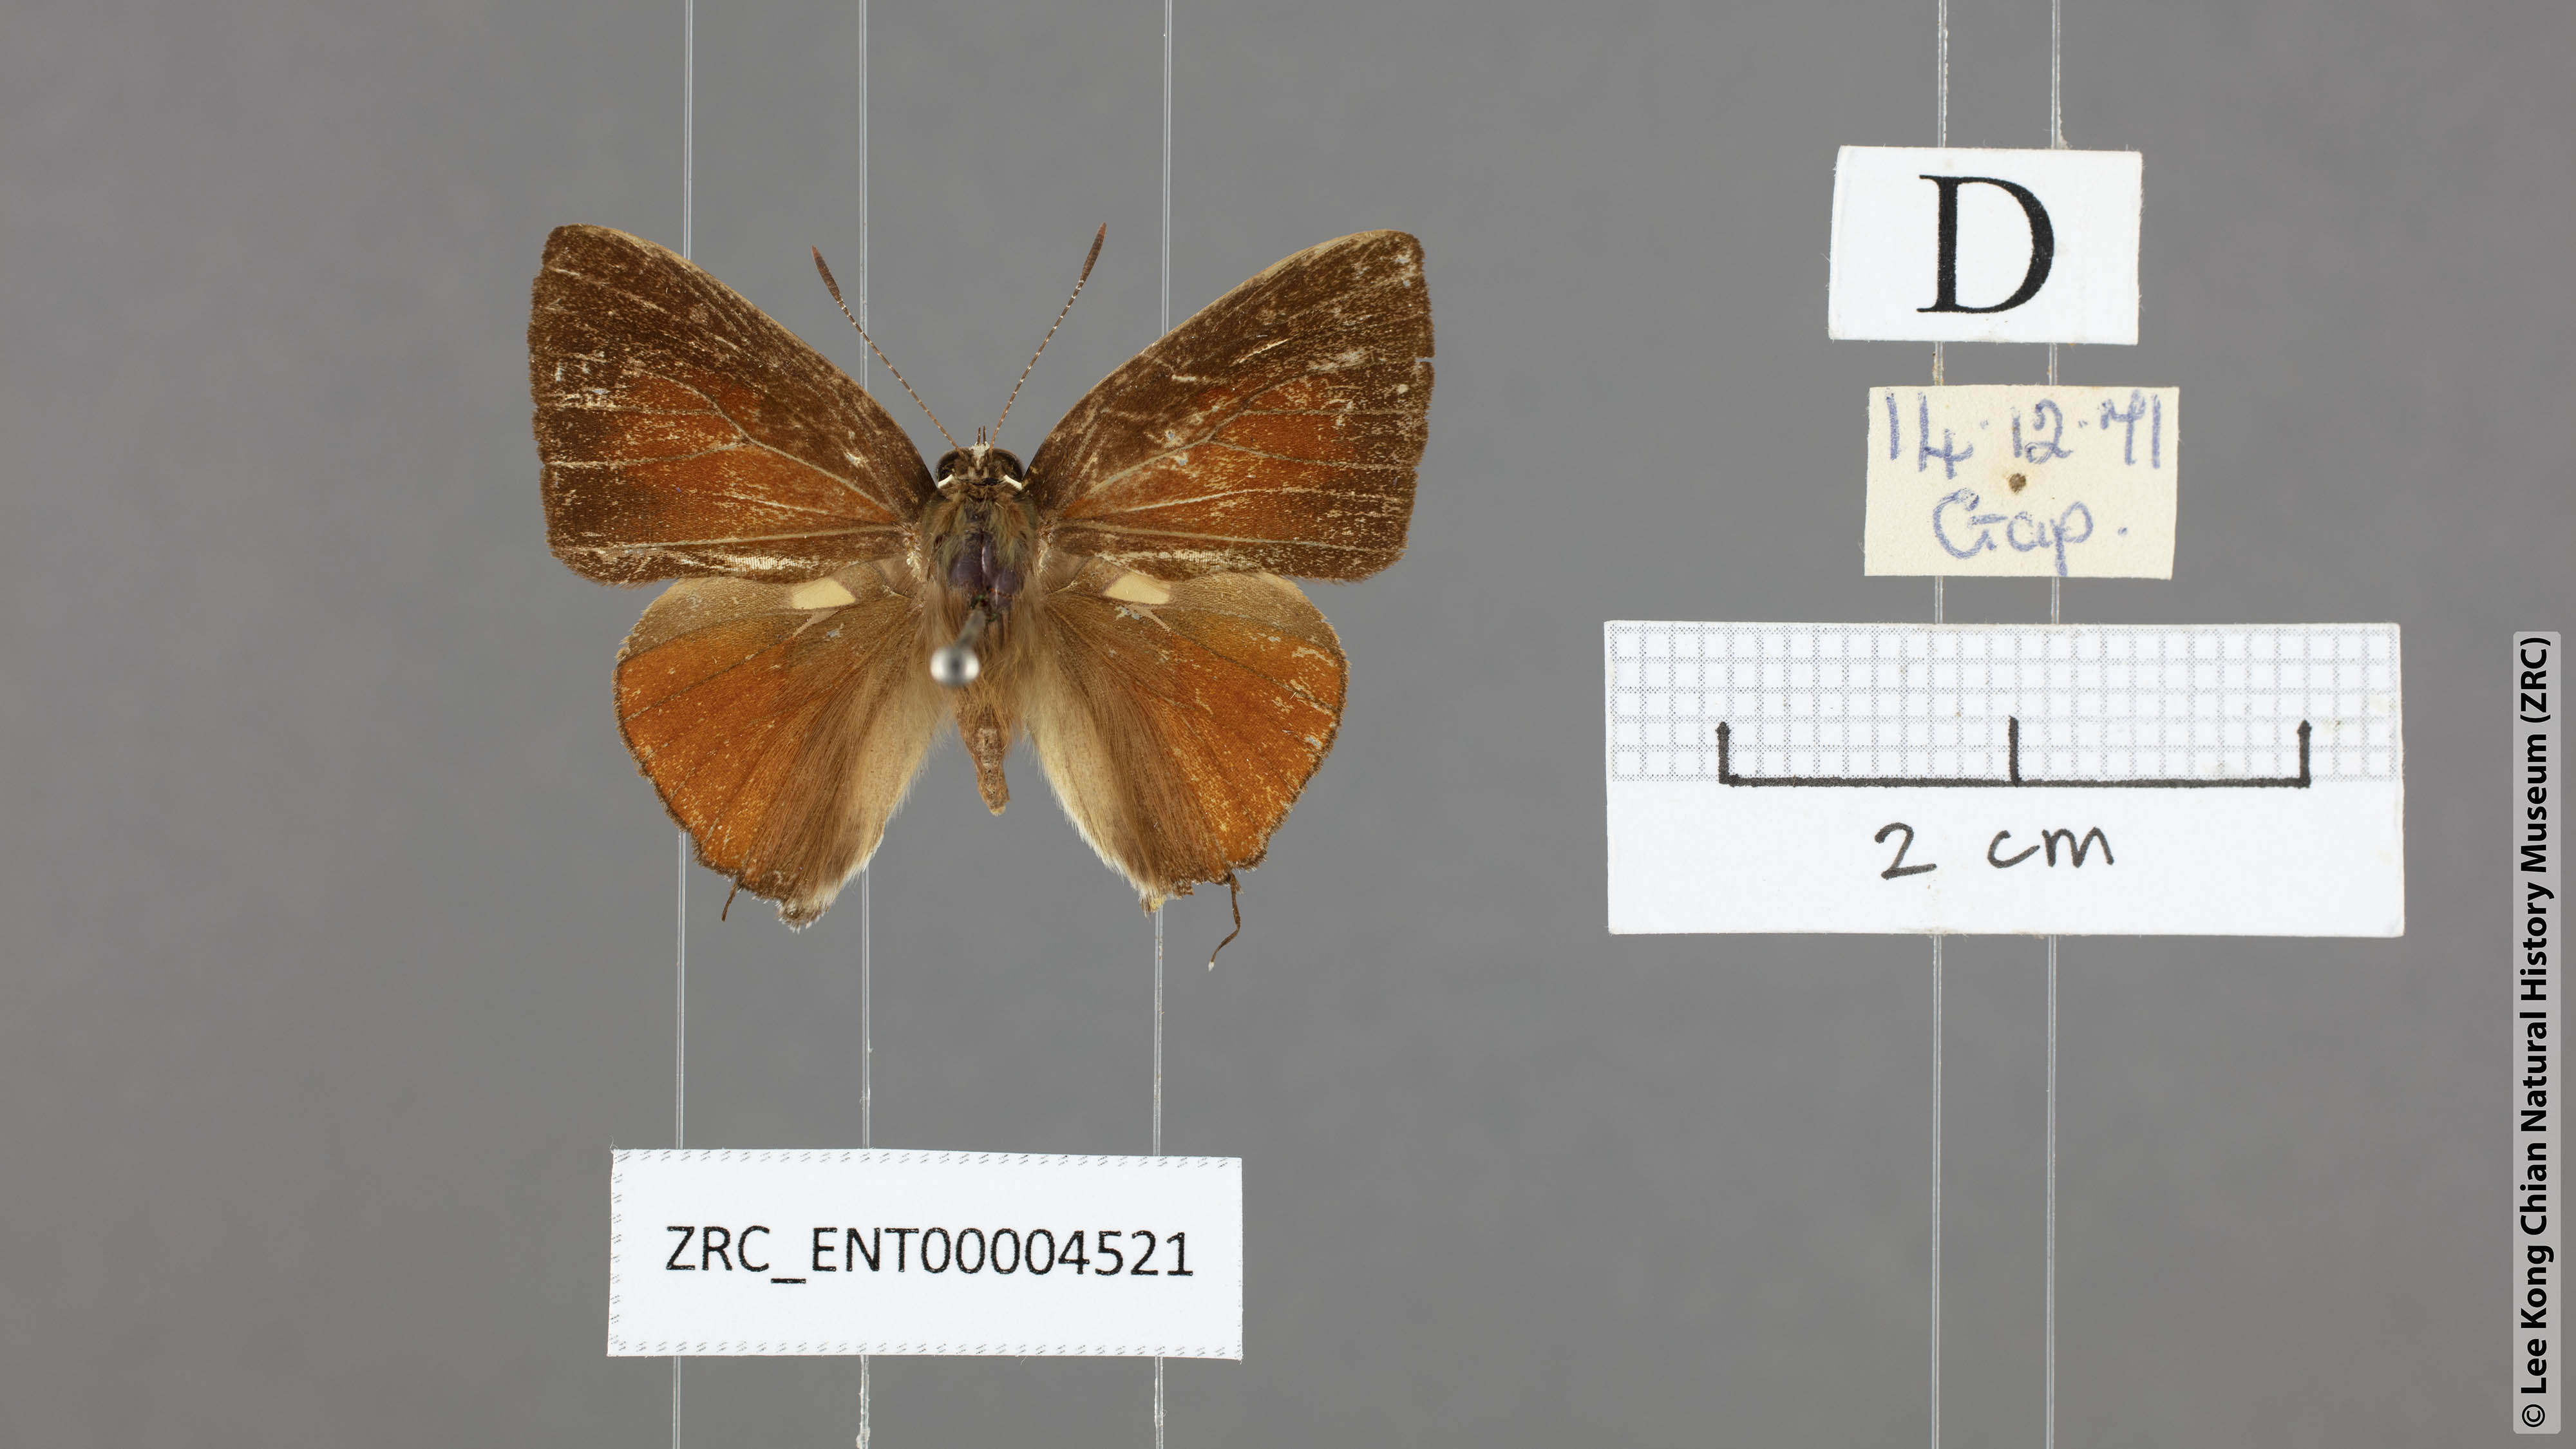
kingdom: Animalia
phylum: Arthropoda
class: Insecta
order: Lepidoptera
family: Lycaenidae
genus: Rapala
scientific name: Rapala suffusa
